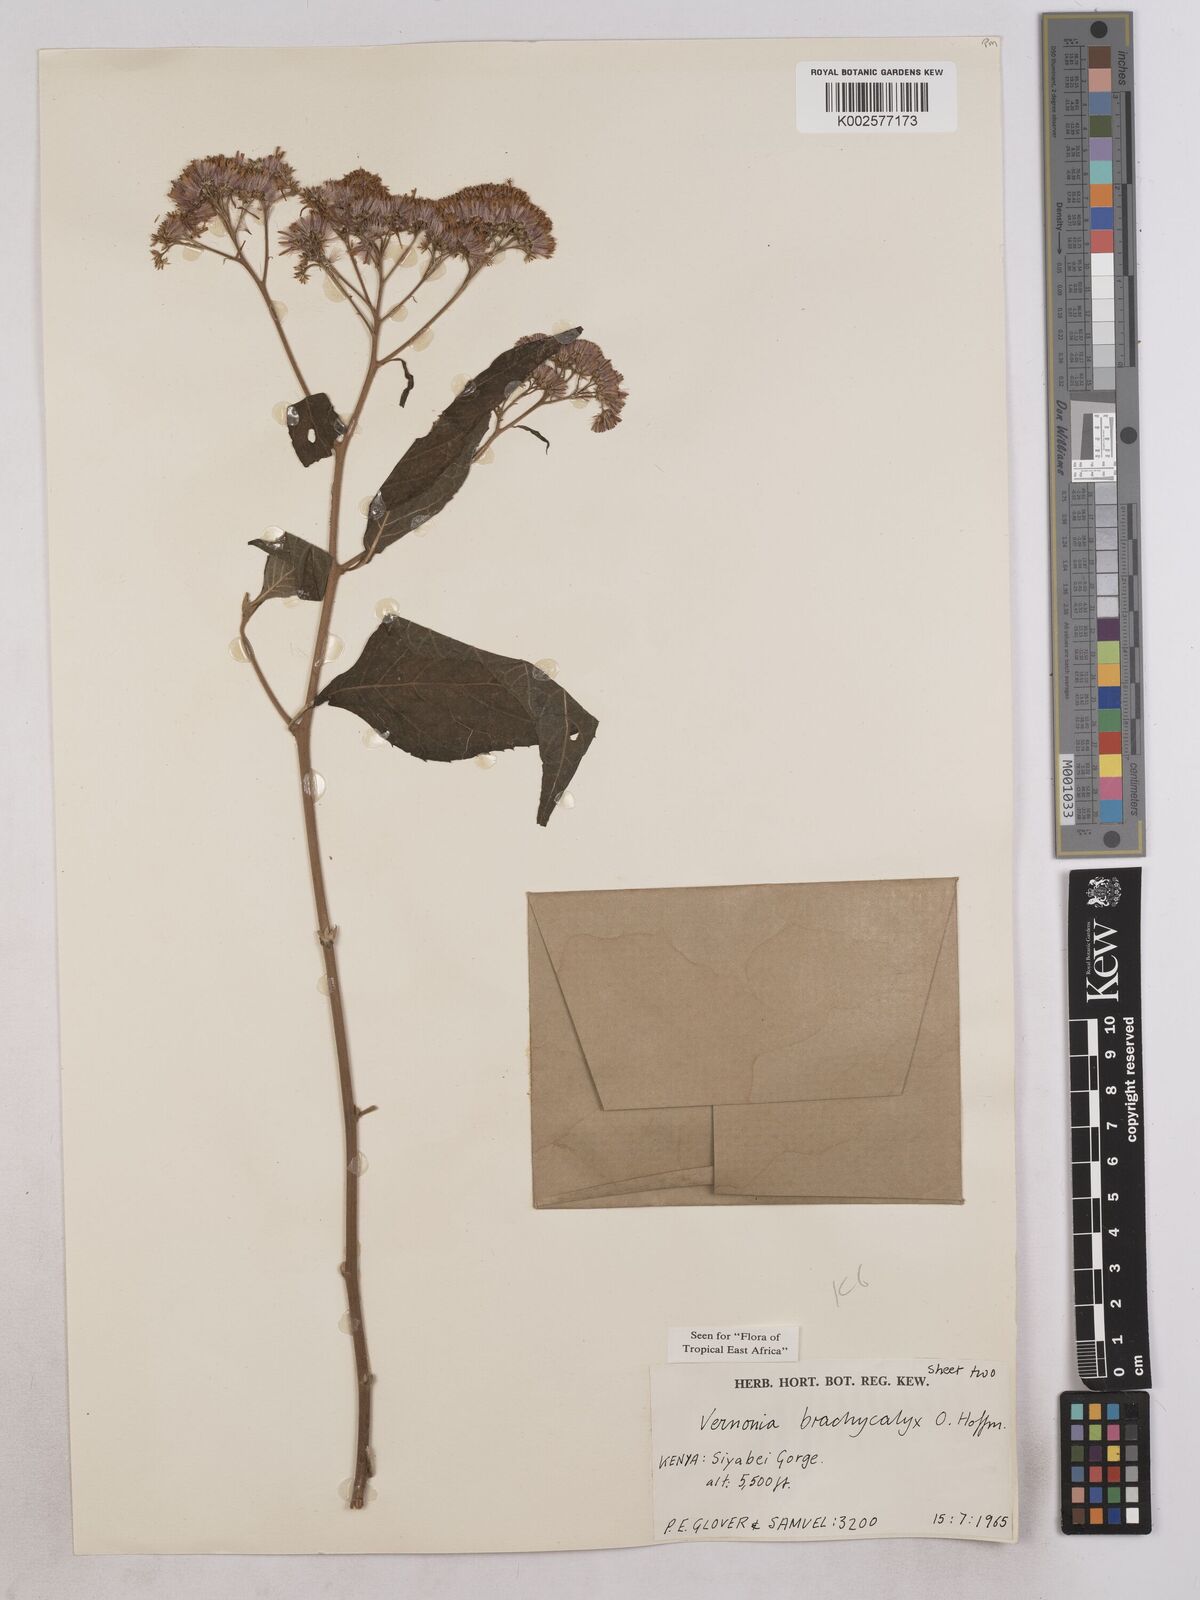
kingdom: Plantae
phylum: Tracheophyta
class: Magnoliopsida
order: Asterales
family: Asteraceae
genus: Hoffmannanthus
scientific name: Hoffmannanthus abbotianus
